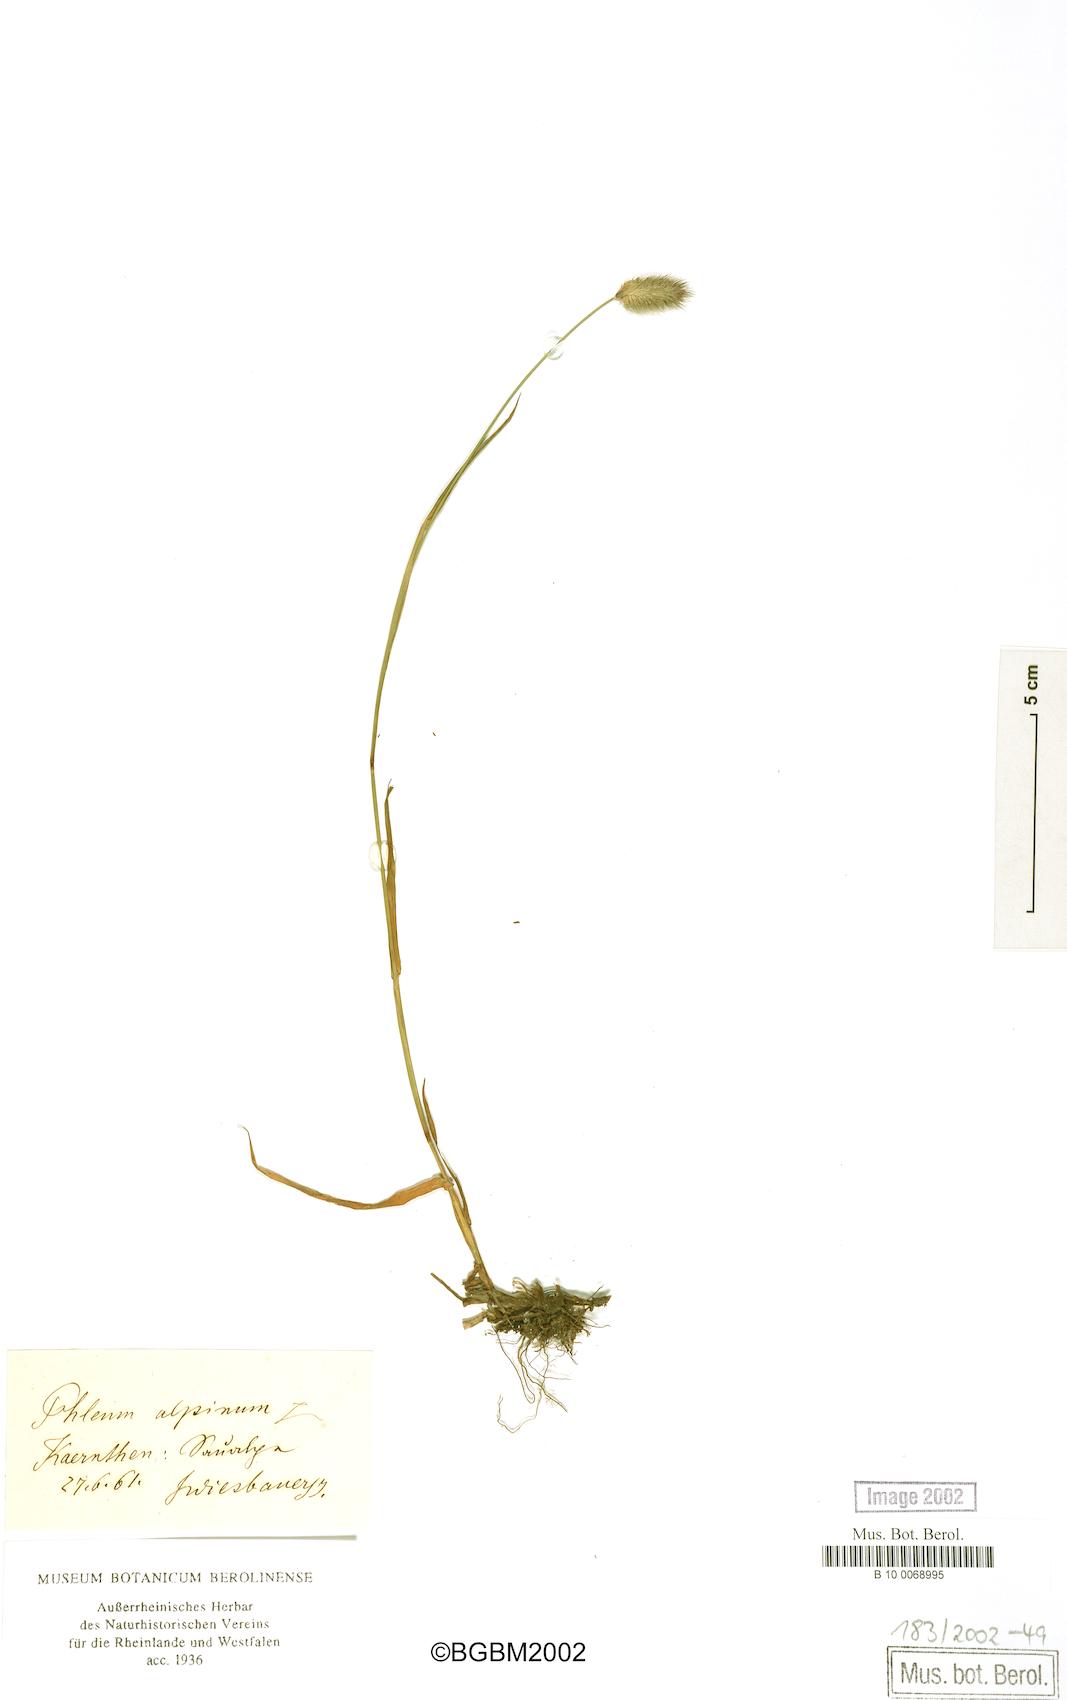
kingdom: Plantae
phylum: Tracheophyta
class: Liliopsida
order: Poales
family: Poaceae
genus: Phleum
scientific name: Phleum alpinum
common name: Alpine cat's-tail
